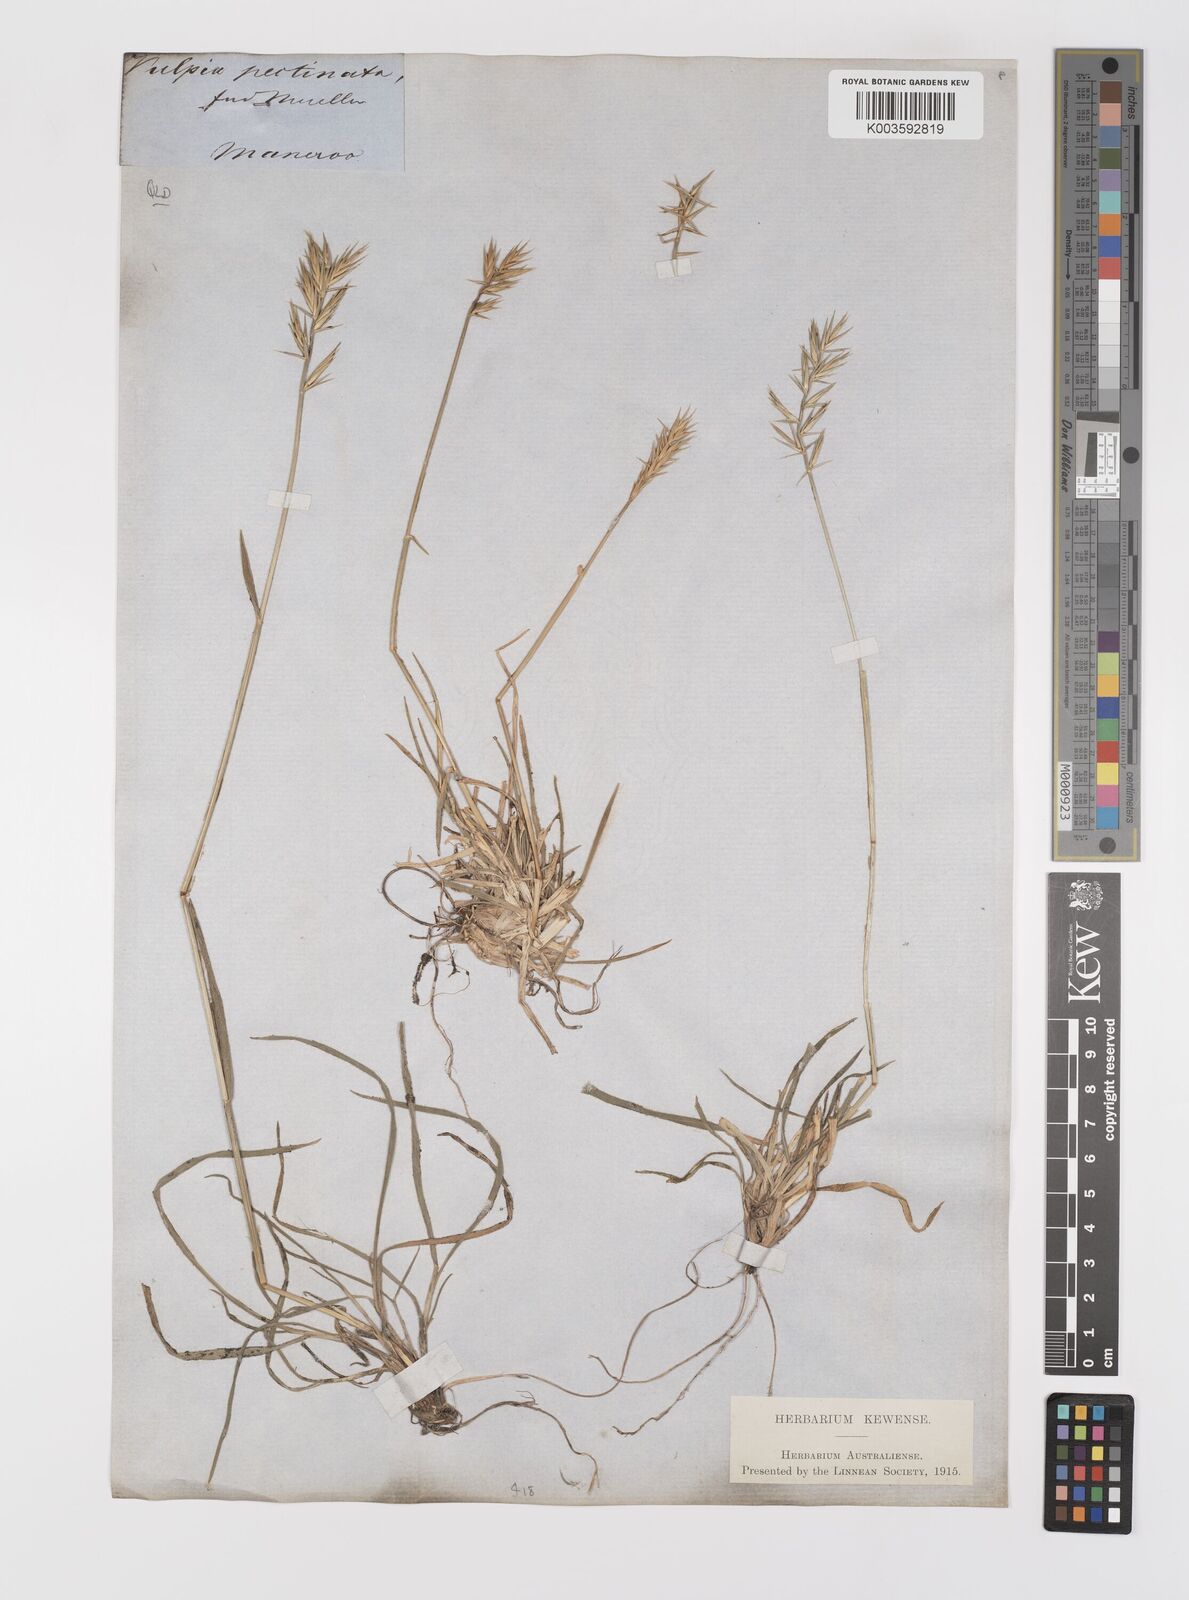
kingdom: Plantae
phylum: Tracheophyta
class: Liliopsida
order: Poales
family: Poaceae
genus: Australopyrum
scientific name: Australopyrum pectinatum
